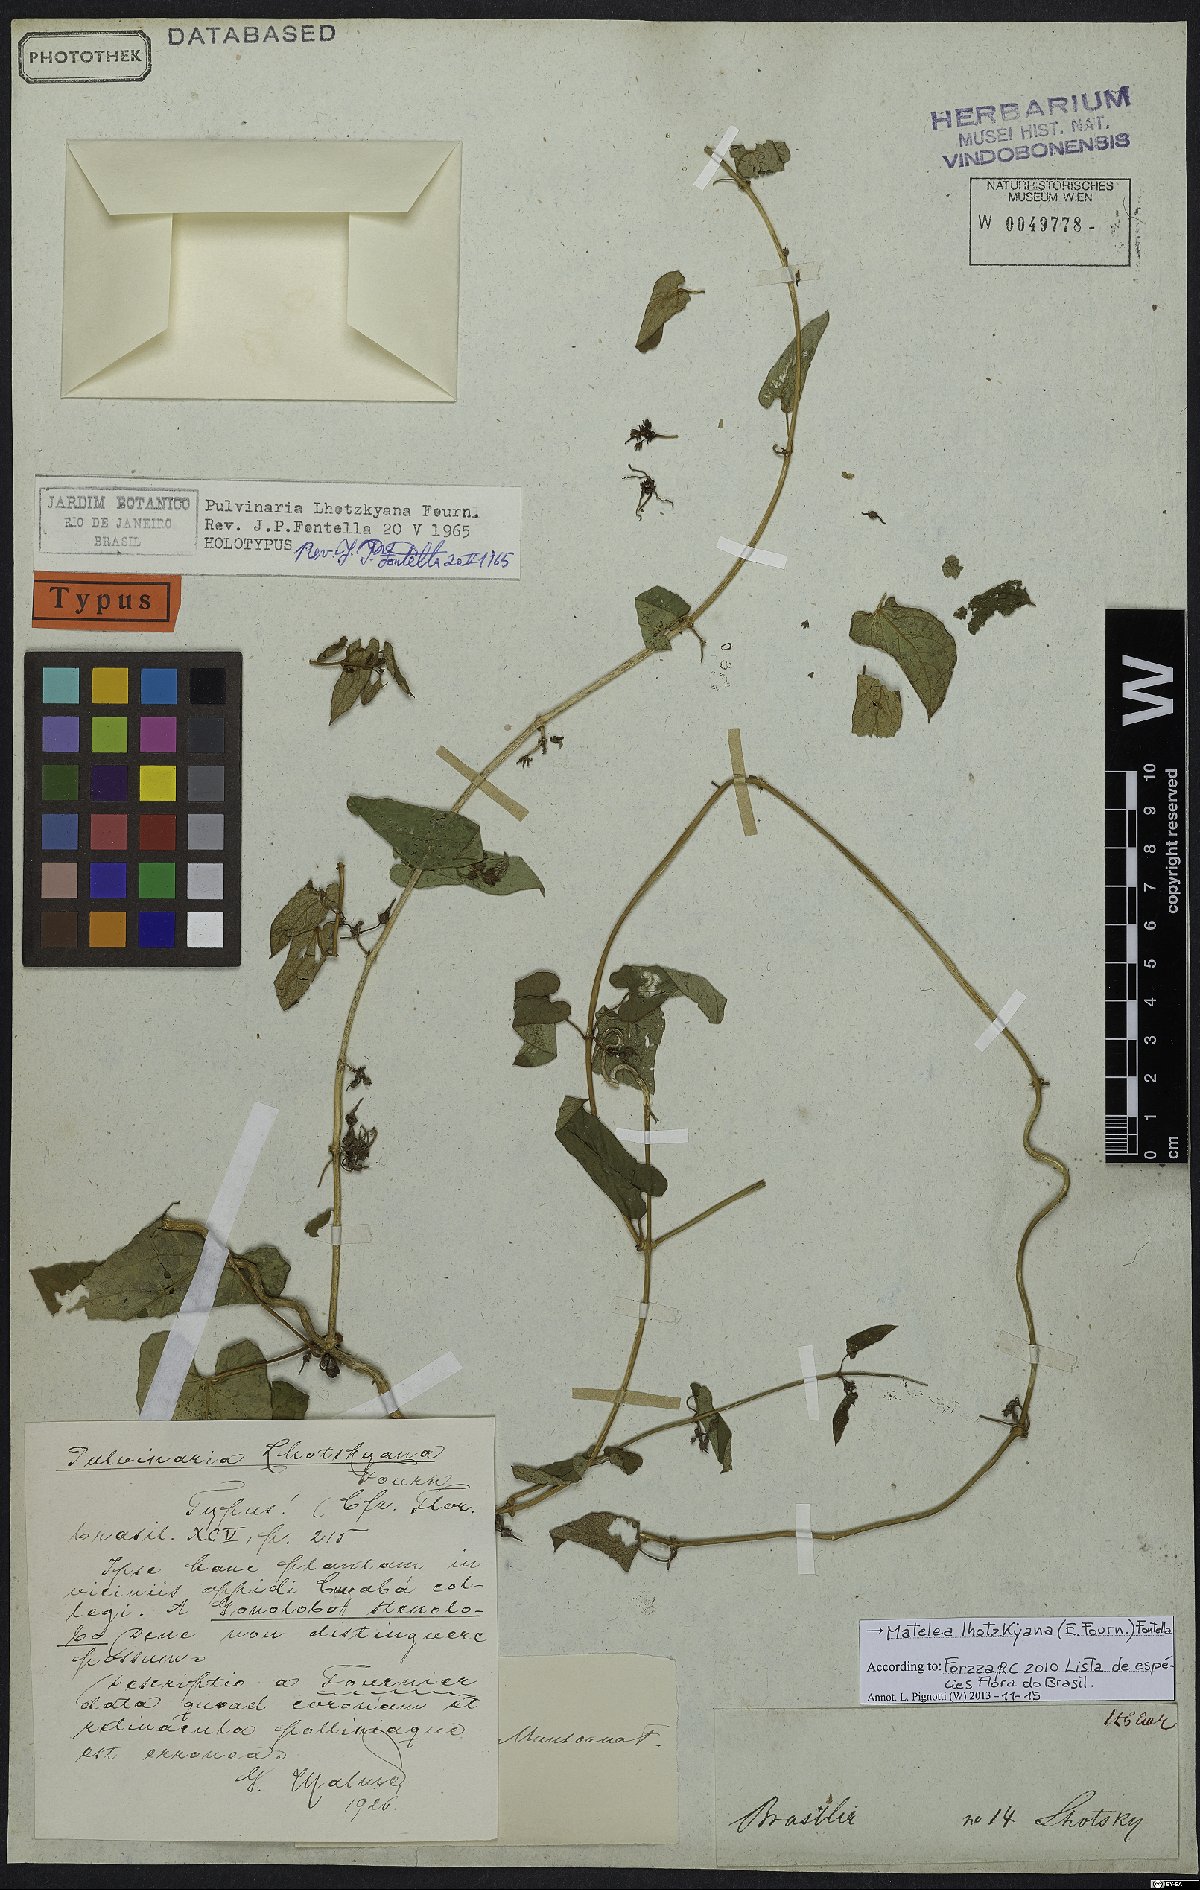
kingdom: Plantae
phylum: Tracheophyta
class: Magnoliopsida
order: Gentianales
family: Apocynaceae
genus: Matelea
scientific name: Matelea lhotzkyana
